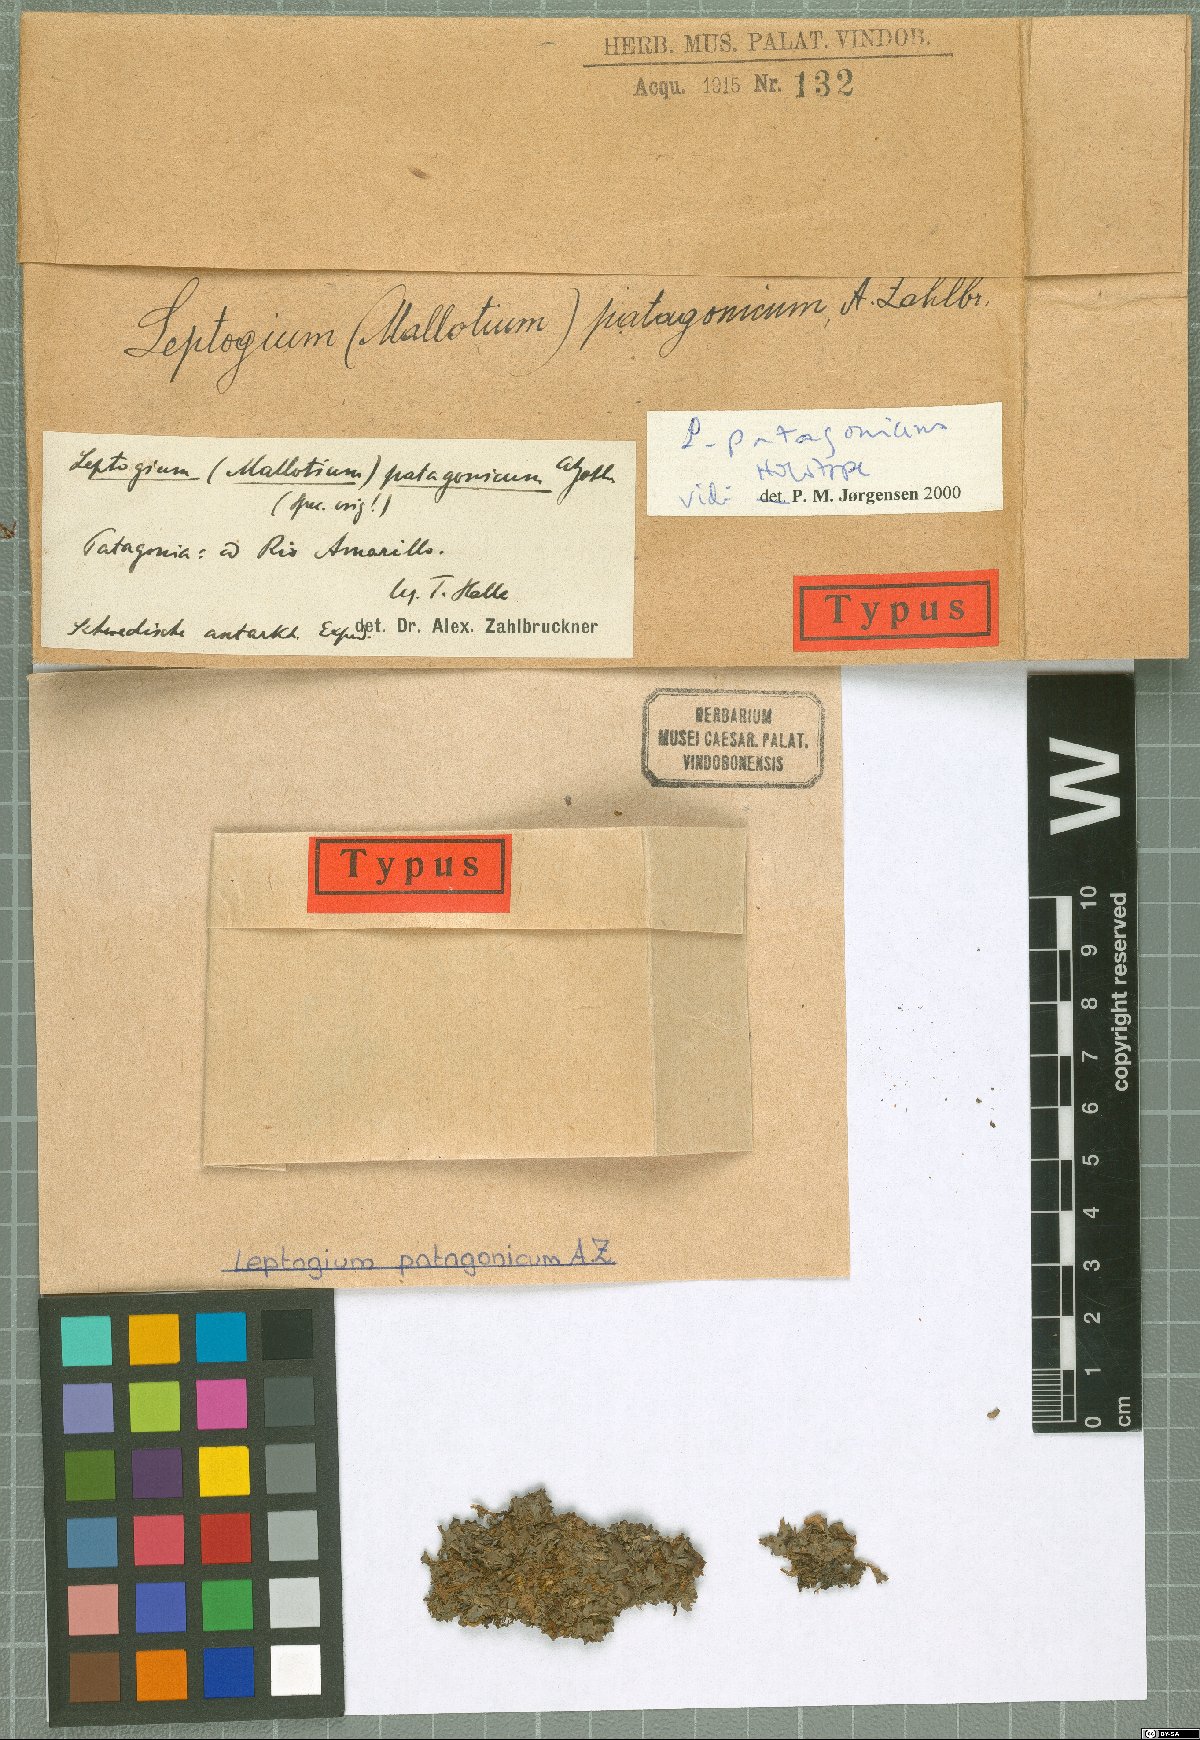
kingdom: Fungi
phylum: Ascomycota
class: Lecanoromycetes
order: Peltigerales
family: Collemataceae
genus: Leptogium
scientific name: Leptogium patagonicum
